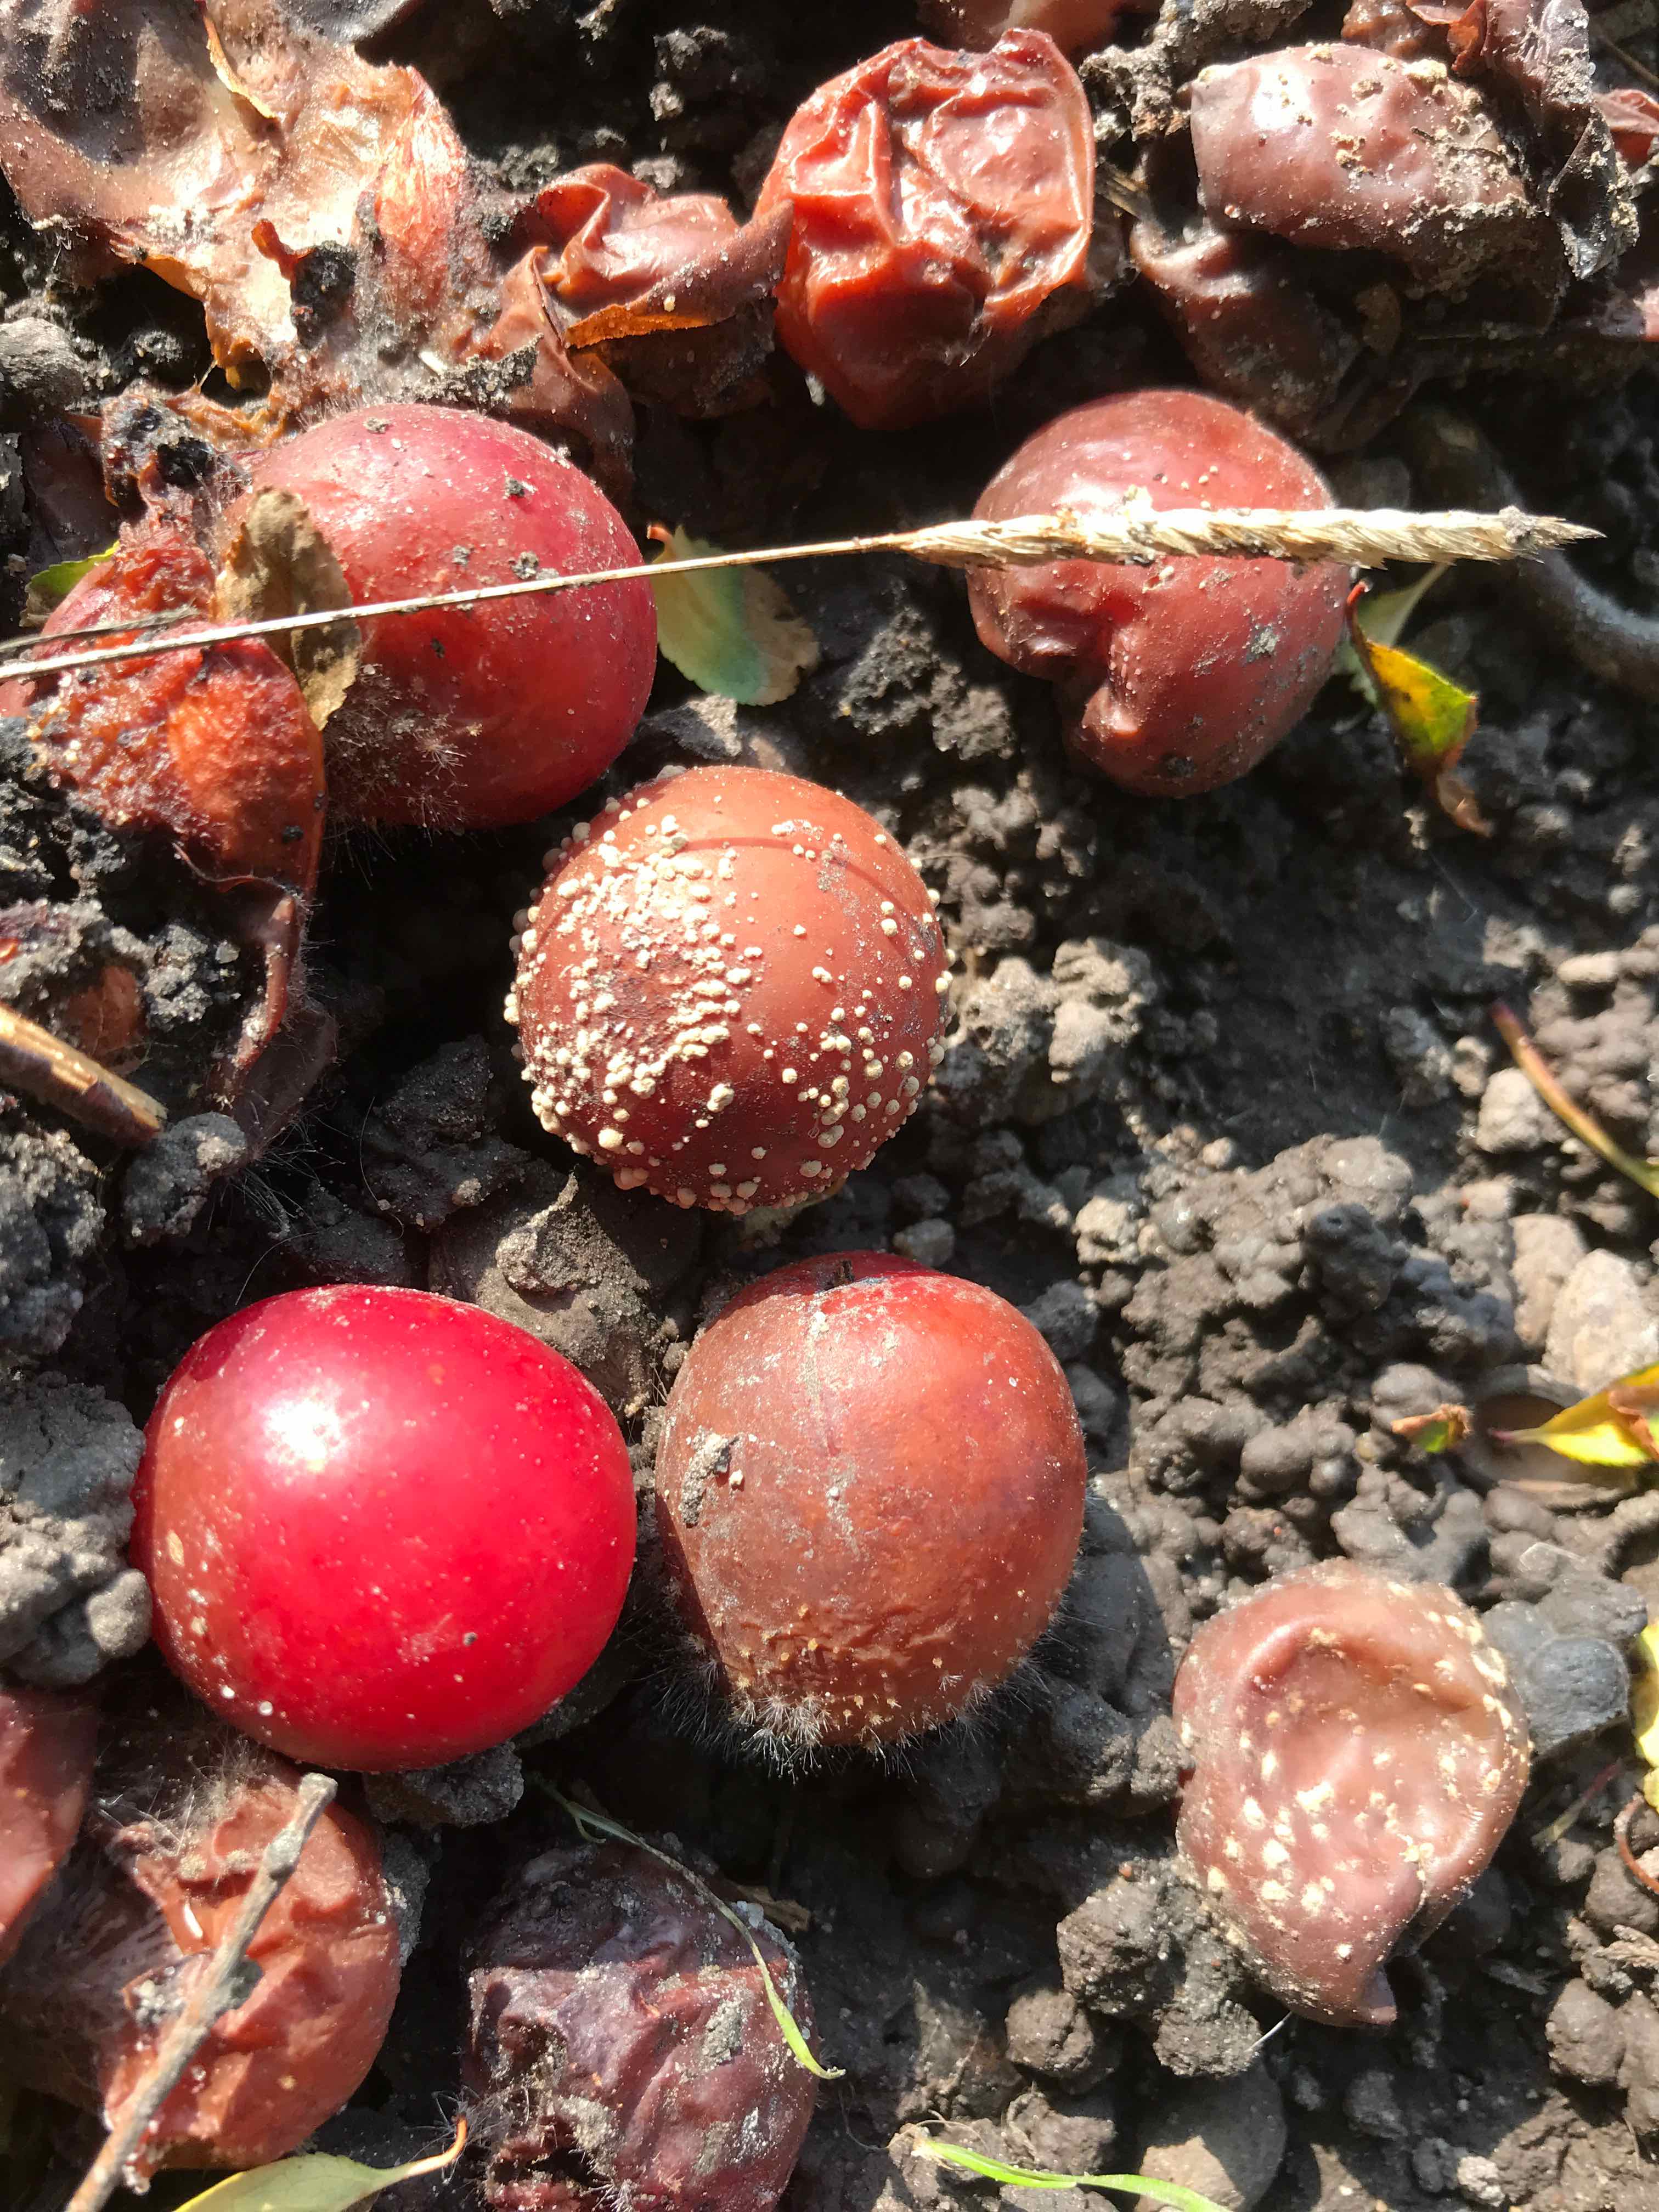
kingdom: Fungi
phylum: Ascomycota
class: Leotiomycetes
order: Helotiales
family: Sclerotiniaceae
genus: Monilinia
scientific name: Monilinia laxa
